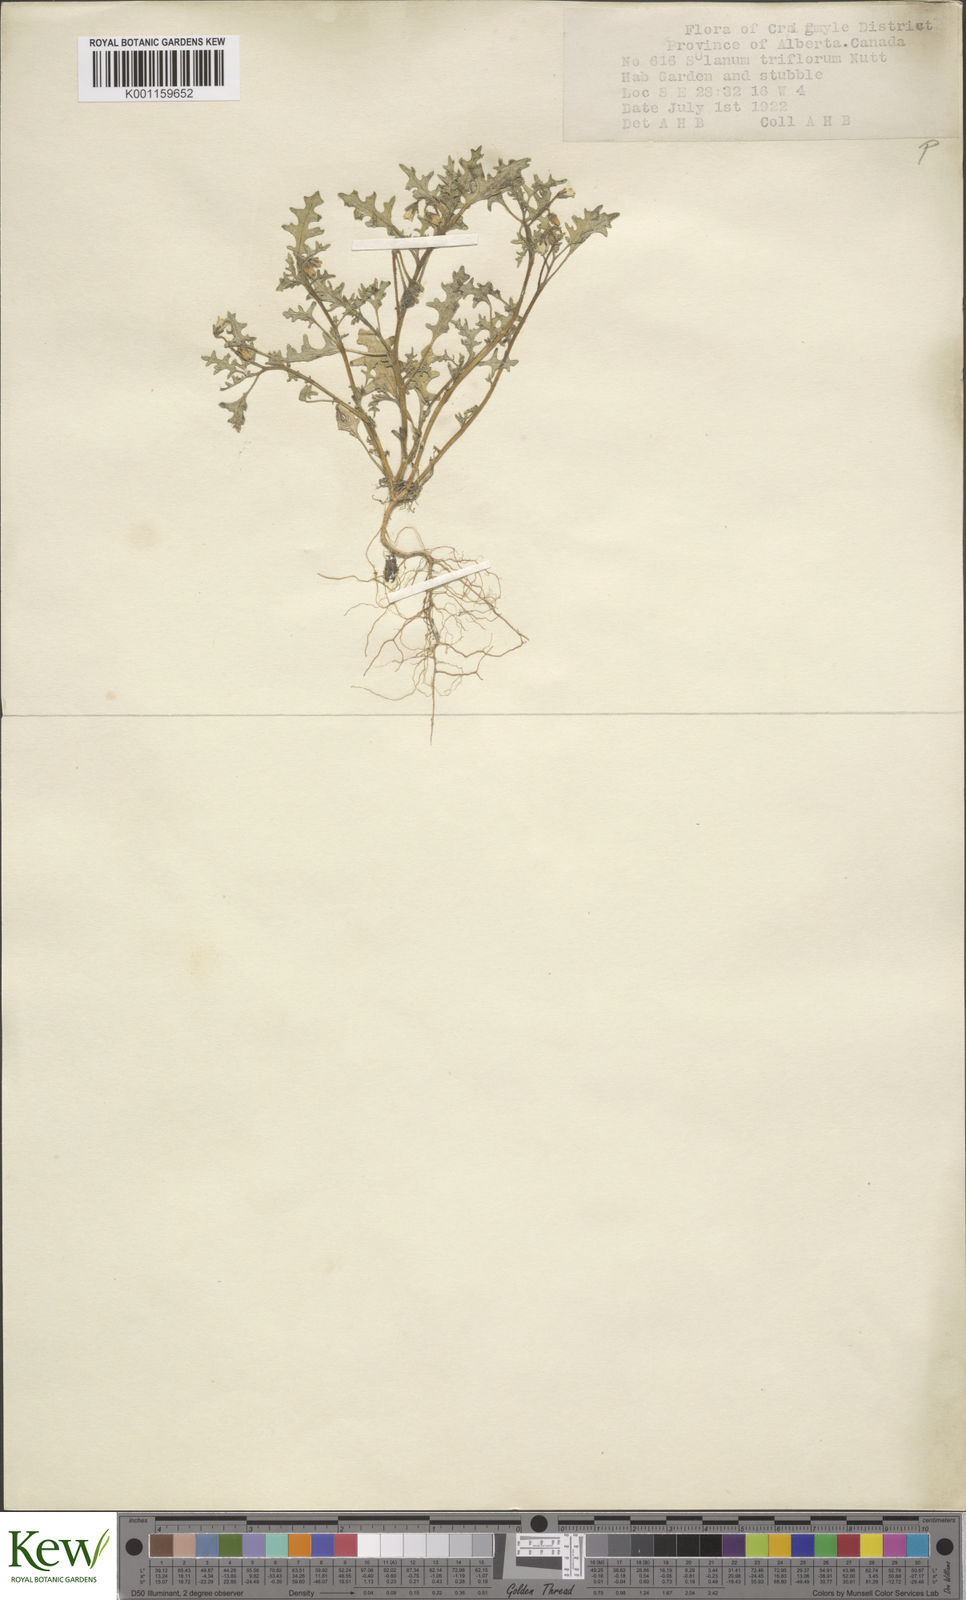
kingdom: Plantae
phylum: Tracheophyta
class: Magnoliopsida
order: Solanales
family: Solanaceae
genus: Solanum
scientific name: Solanum triflorum
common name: Small nightshade
